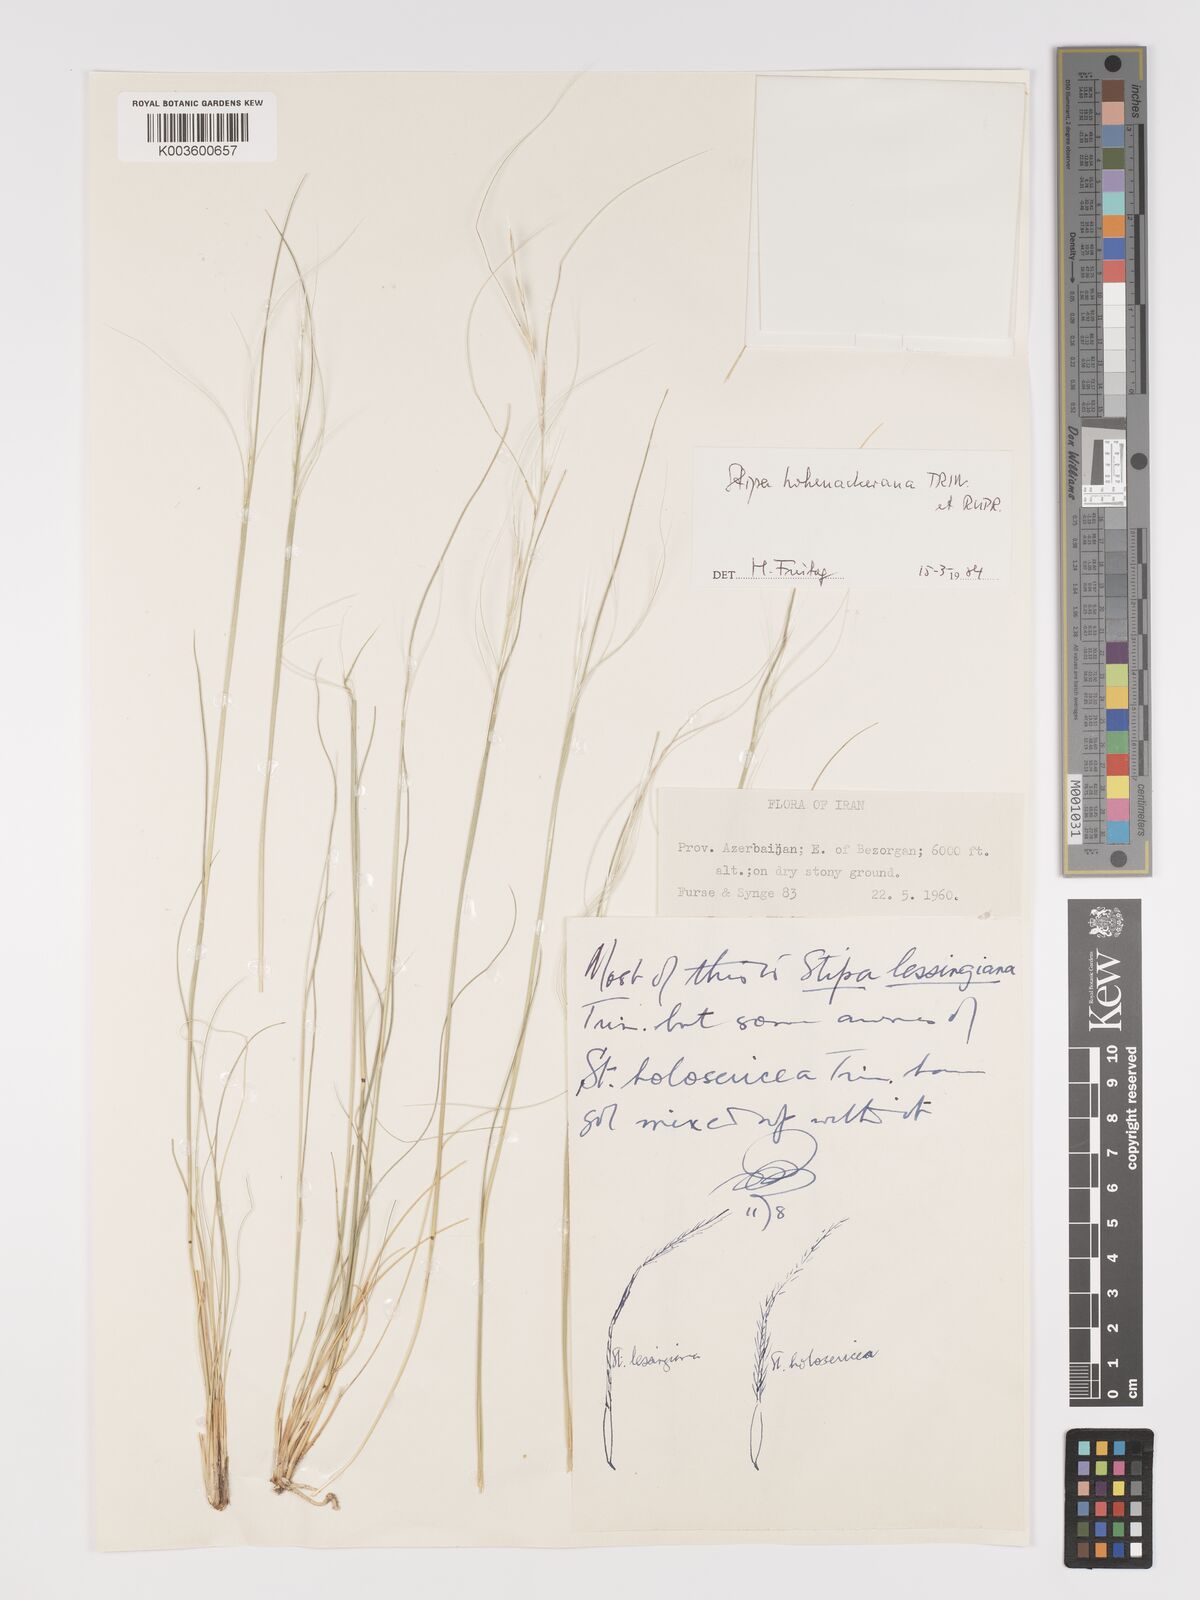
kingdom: Plantae
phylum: Tracheophyta
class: Liliopsida
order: Poales
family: Poaceae
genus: Stipa
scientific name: Stipa hohenackeriana
